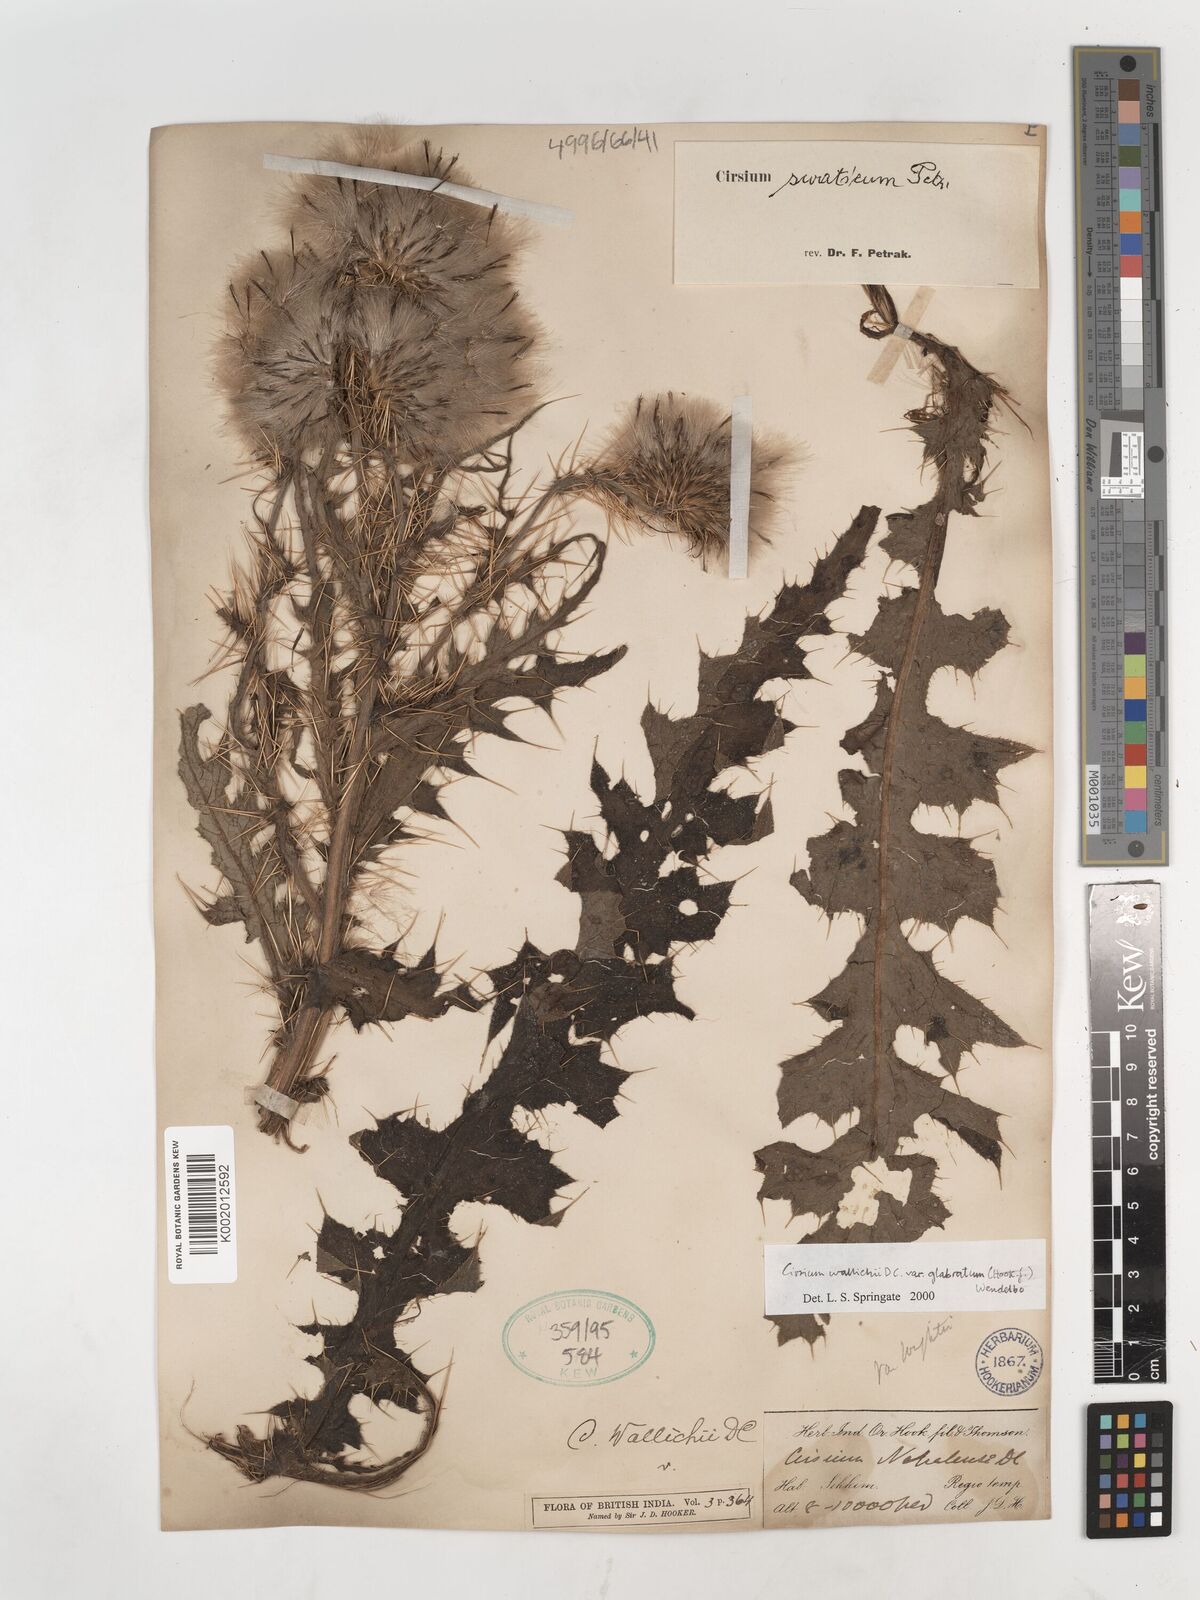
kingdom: Plantae
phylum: Tracheophyta
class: Magnoliopsida
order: Asterales
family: Asteraceae
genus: Cirsium
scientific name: Cirsium wallichii
